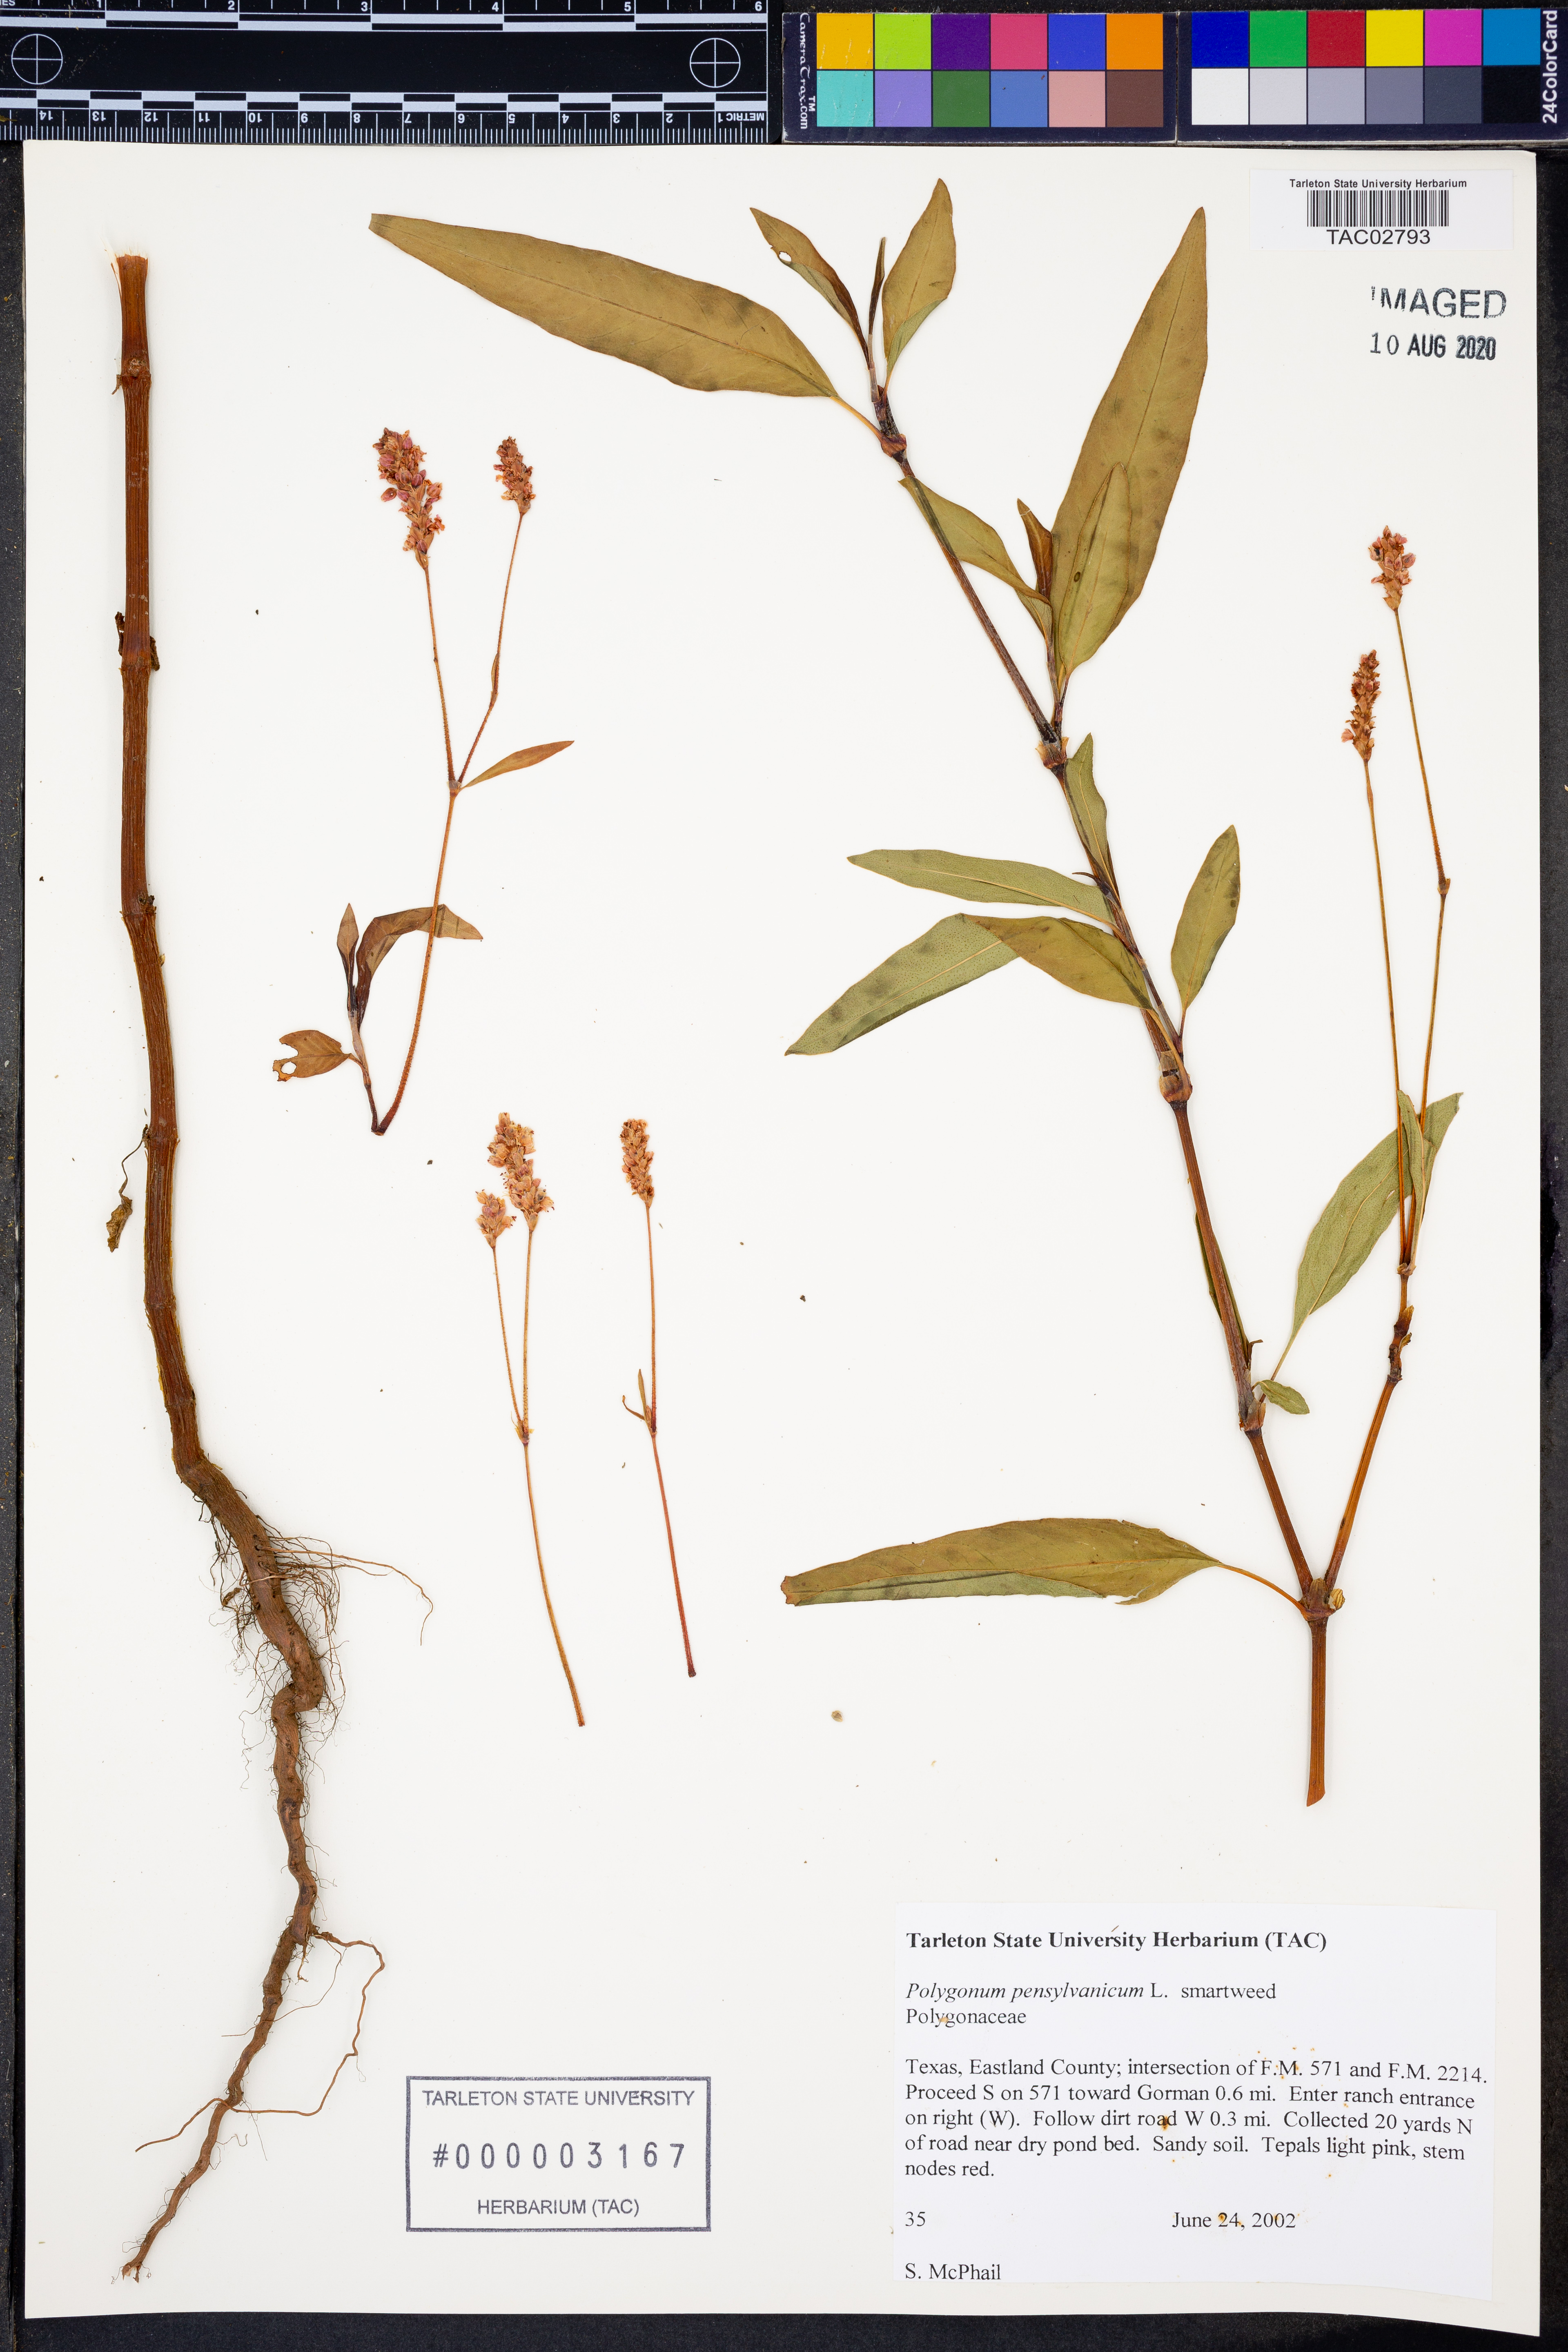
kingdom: Plantae
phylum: Tracheophyta
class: Magnoliopsida
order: Caryophyllales
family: Polygonaceae
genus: Persicaria
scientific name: Persicaria pensylvanica
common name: Pinkweed
